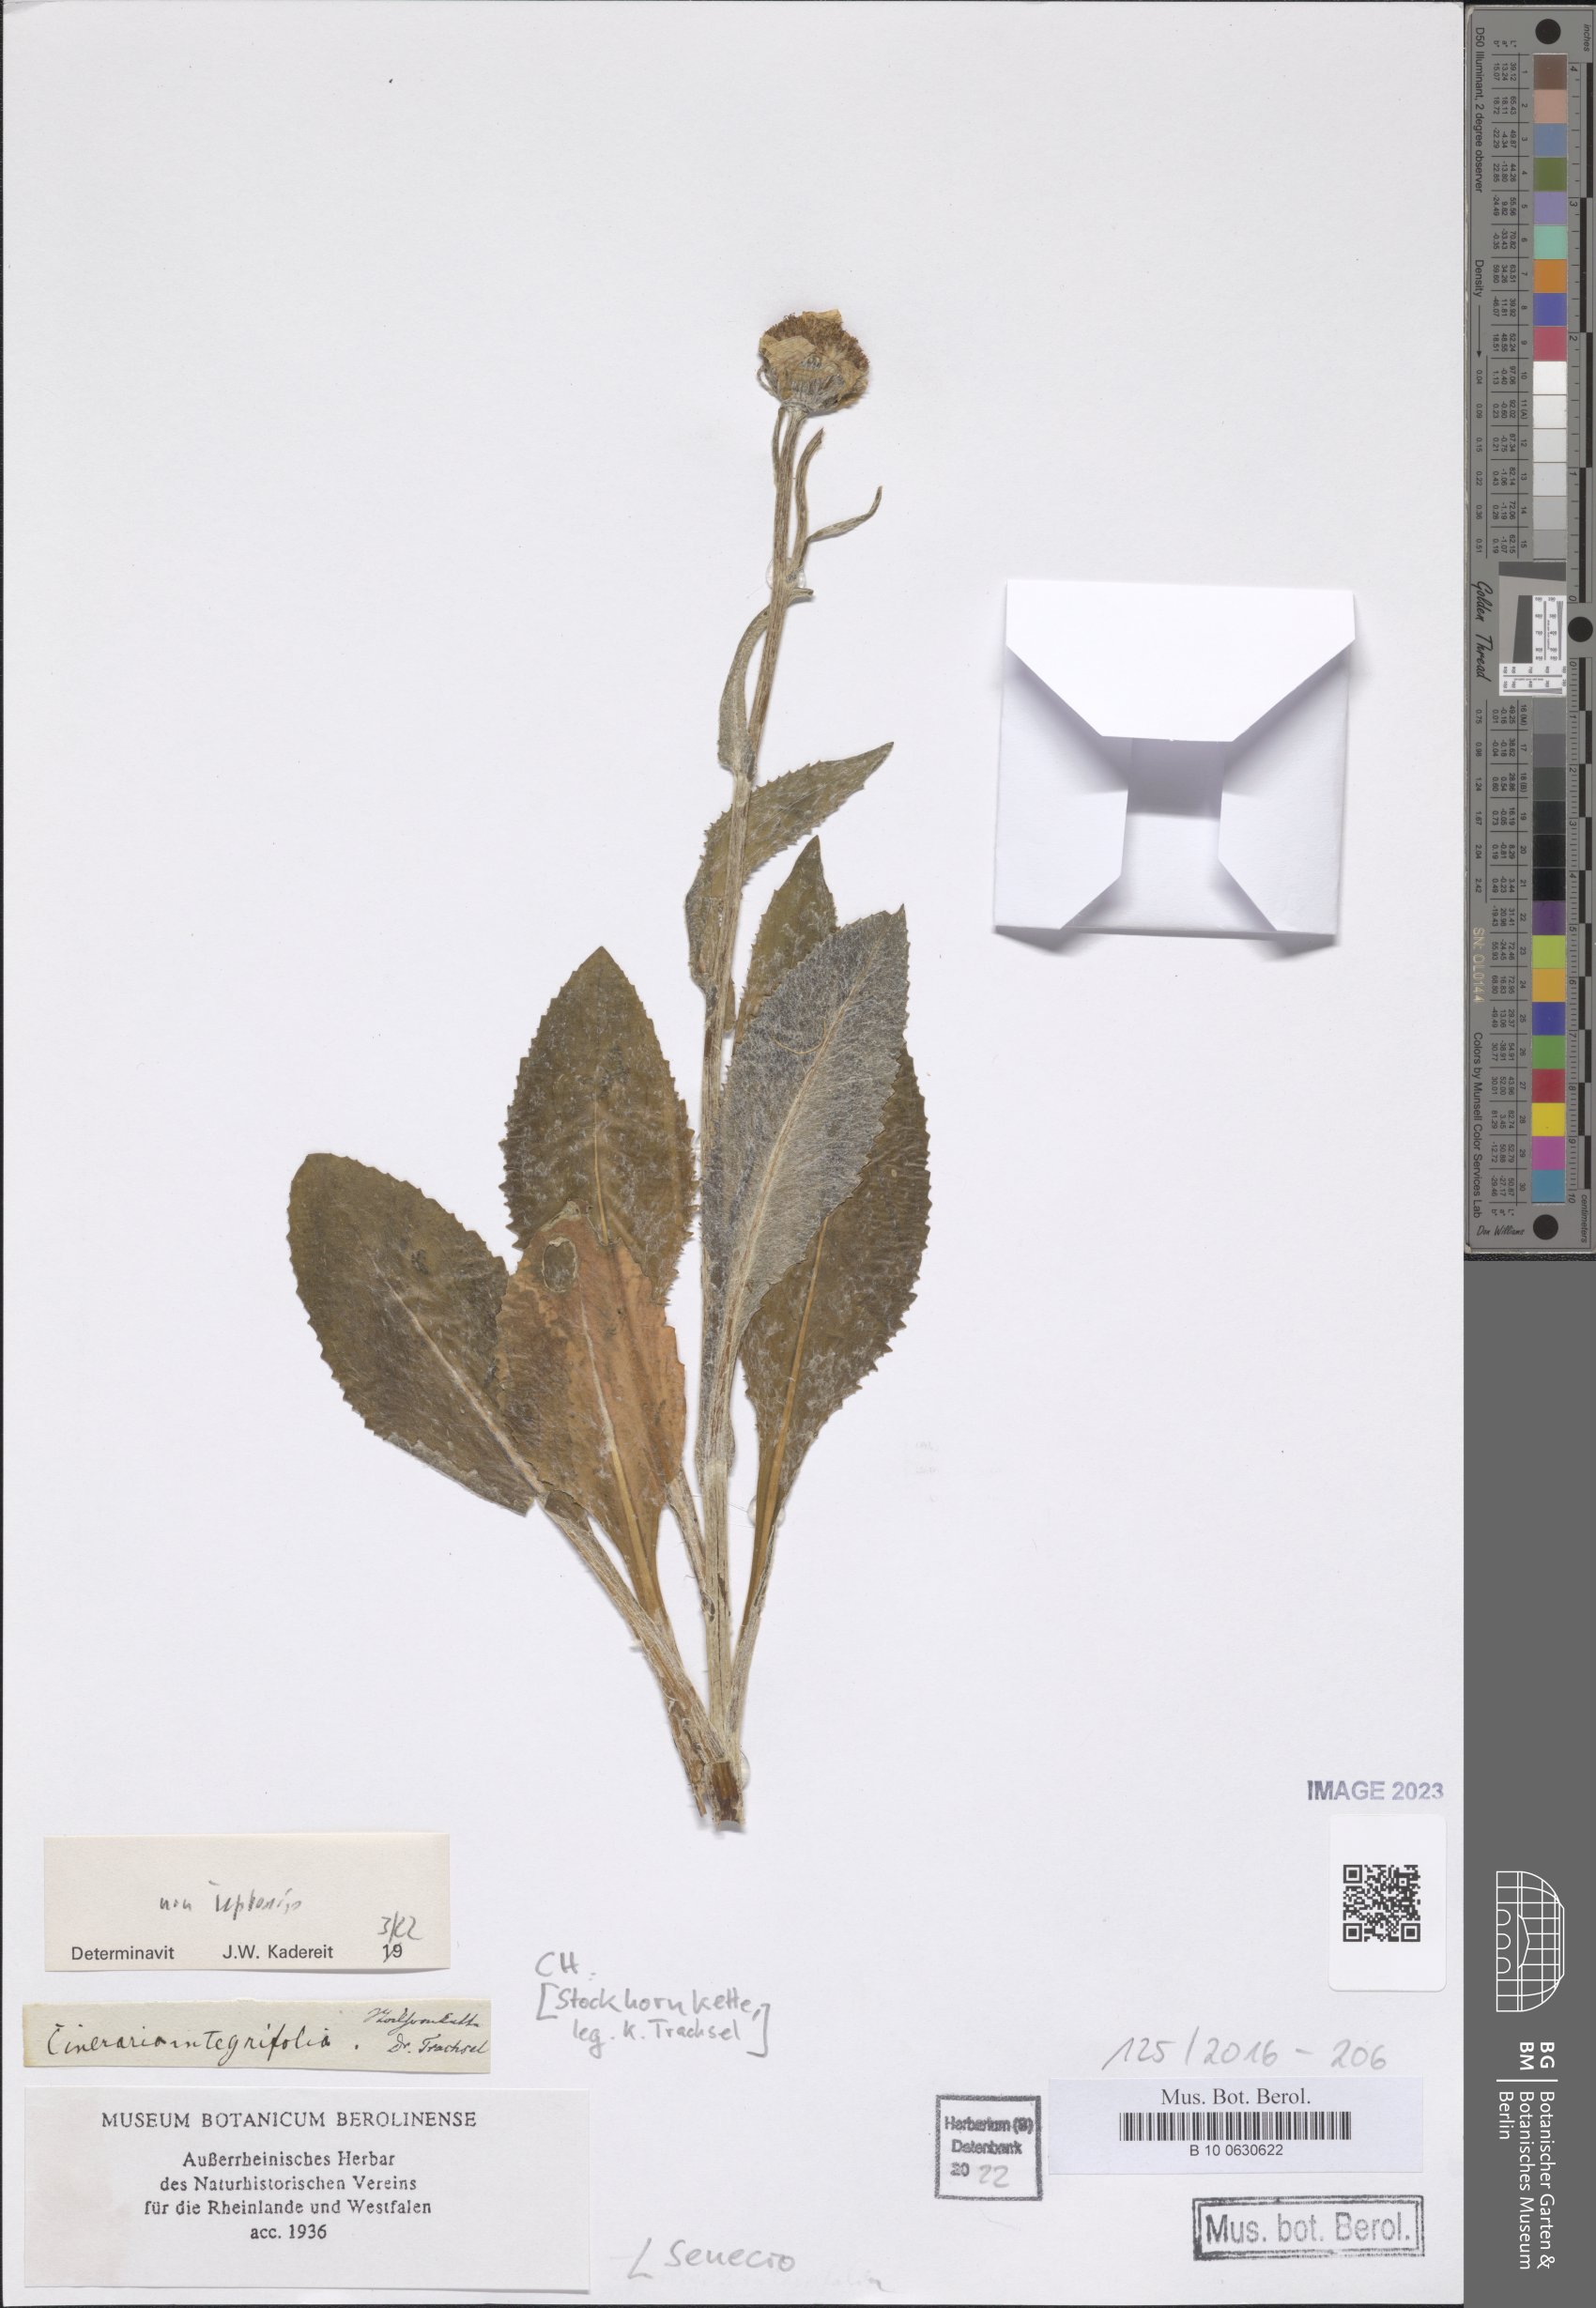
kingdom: Plantae
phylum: Tracheophyta
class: Magnoliopsida
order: Asterales
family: Asteraceae
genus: Senecio
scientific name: Senecio
